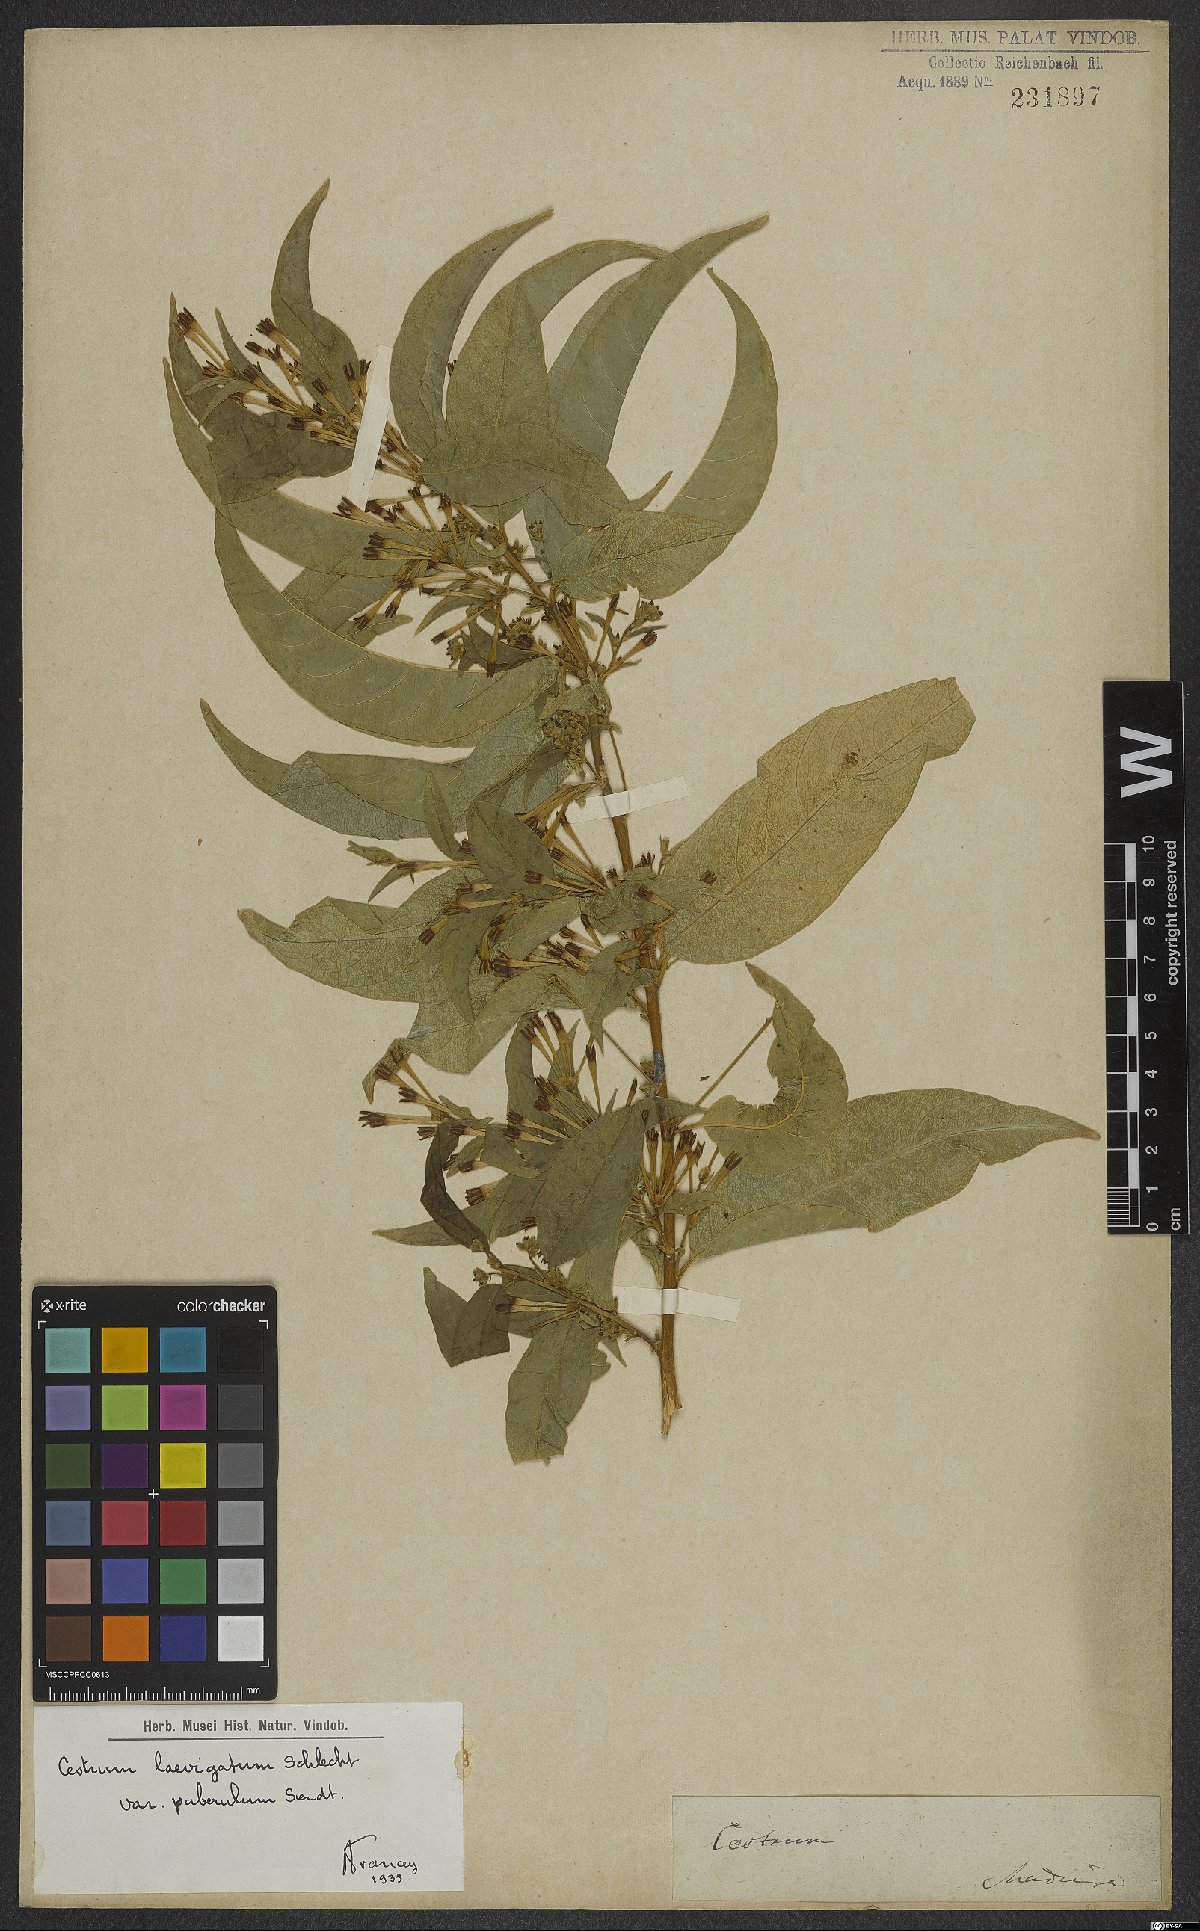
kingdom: Plantae
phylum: Tracheophyta
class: Magnoliopsida
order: Solanales
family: Solanaceae
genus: Cestrum
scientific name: Cestrum laevigatum
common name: Inkberry
